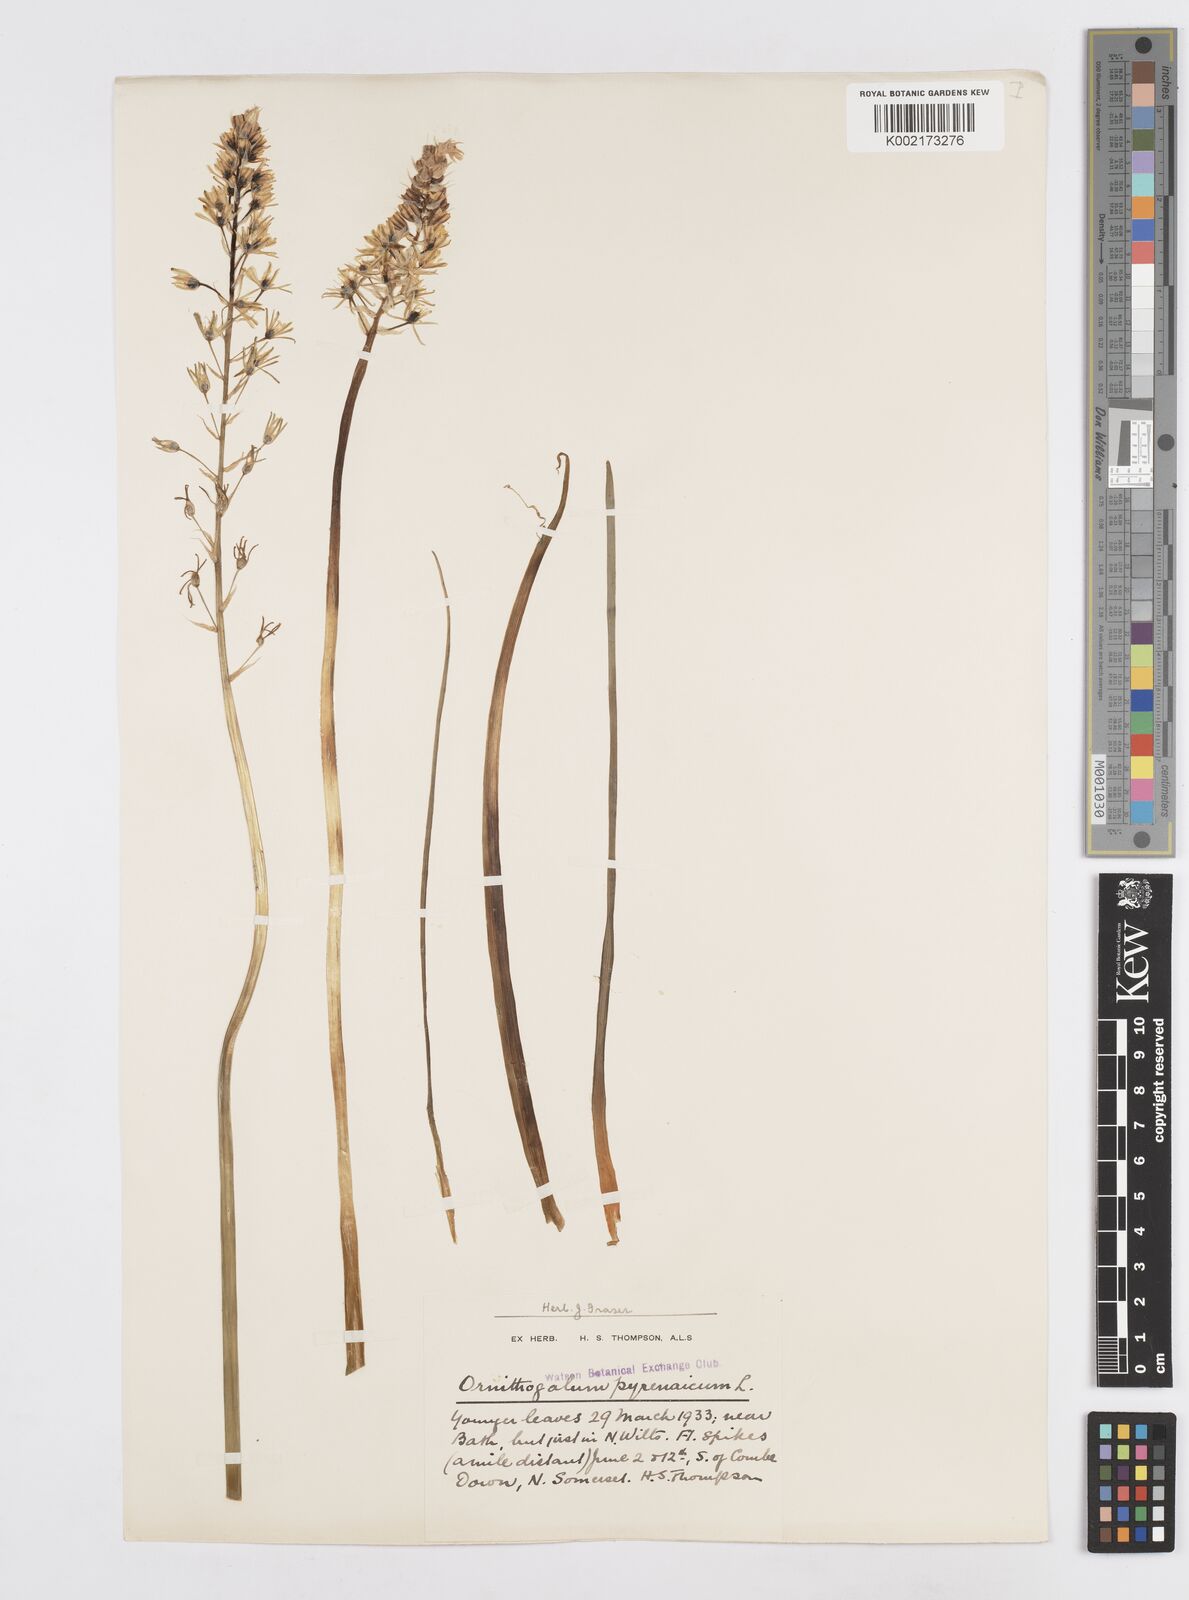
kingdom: Plantae
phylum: Tracheophyta
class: Liliopsida
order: Asparagales
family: Asparagaceae
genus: Ornithogalum
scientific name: Ornithogalum pyrenaicum
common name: Spiked star-of-bethlehem
